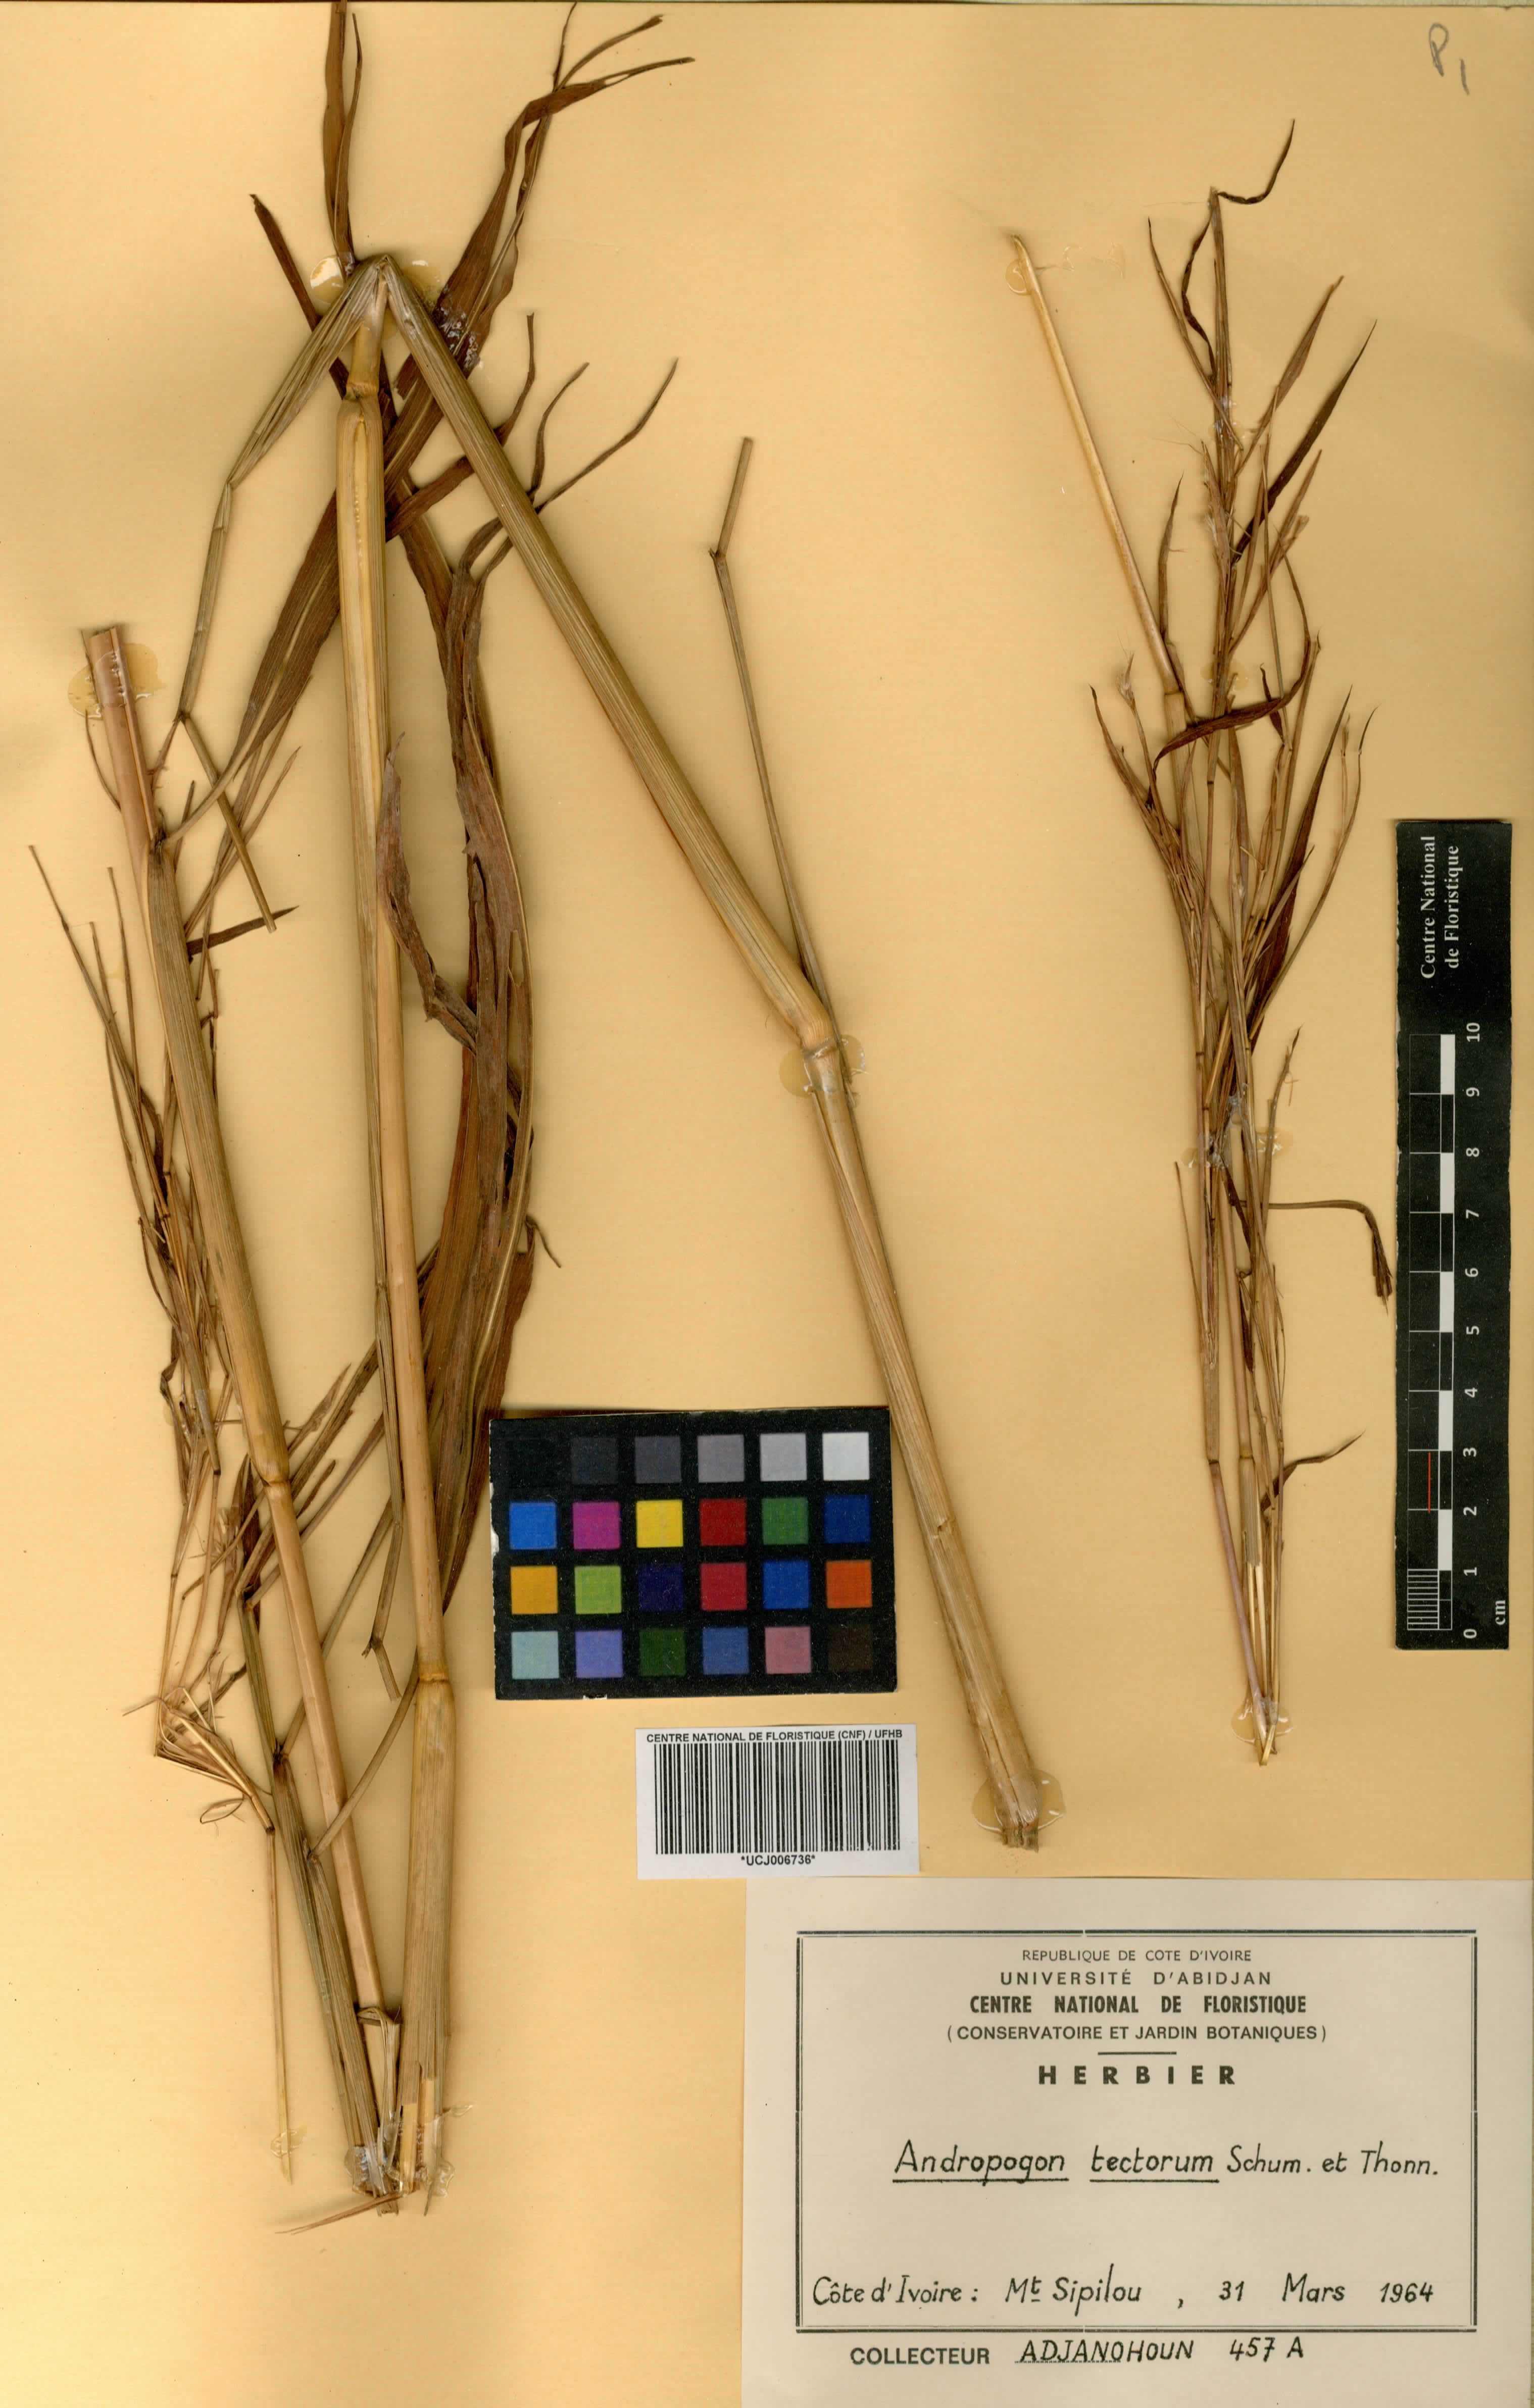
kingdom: Plantae
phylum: Tracheophyta
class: Liliopsida
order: Poales
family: Poaceae
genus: Andropogon
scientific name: Andropogon tectorum
